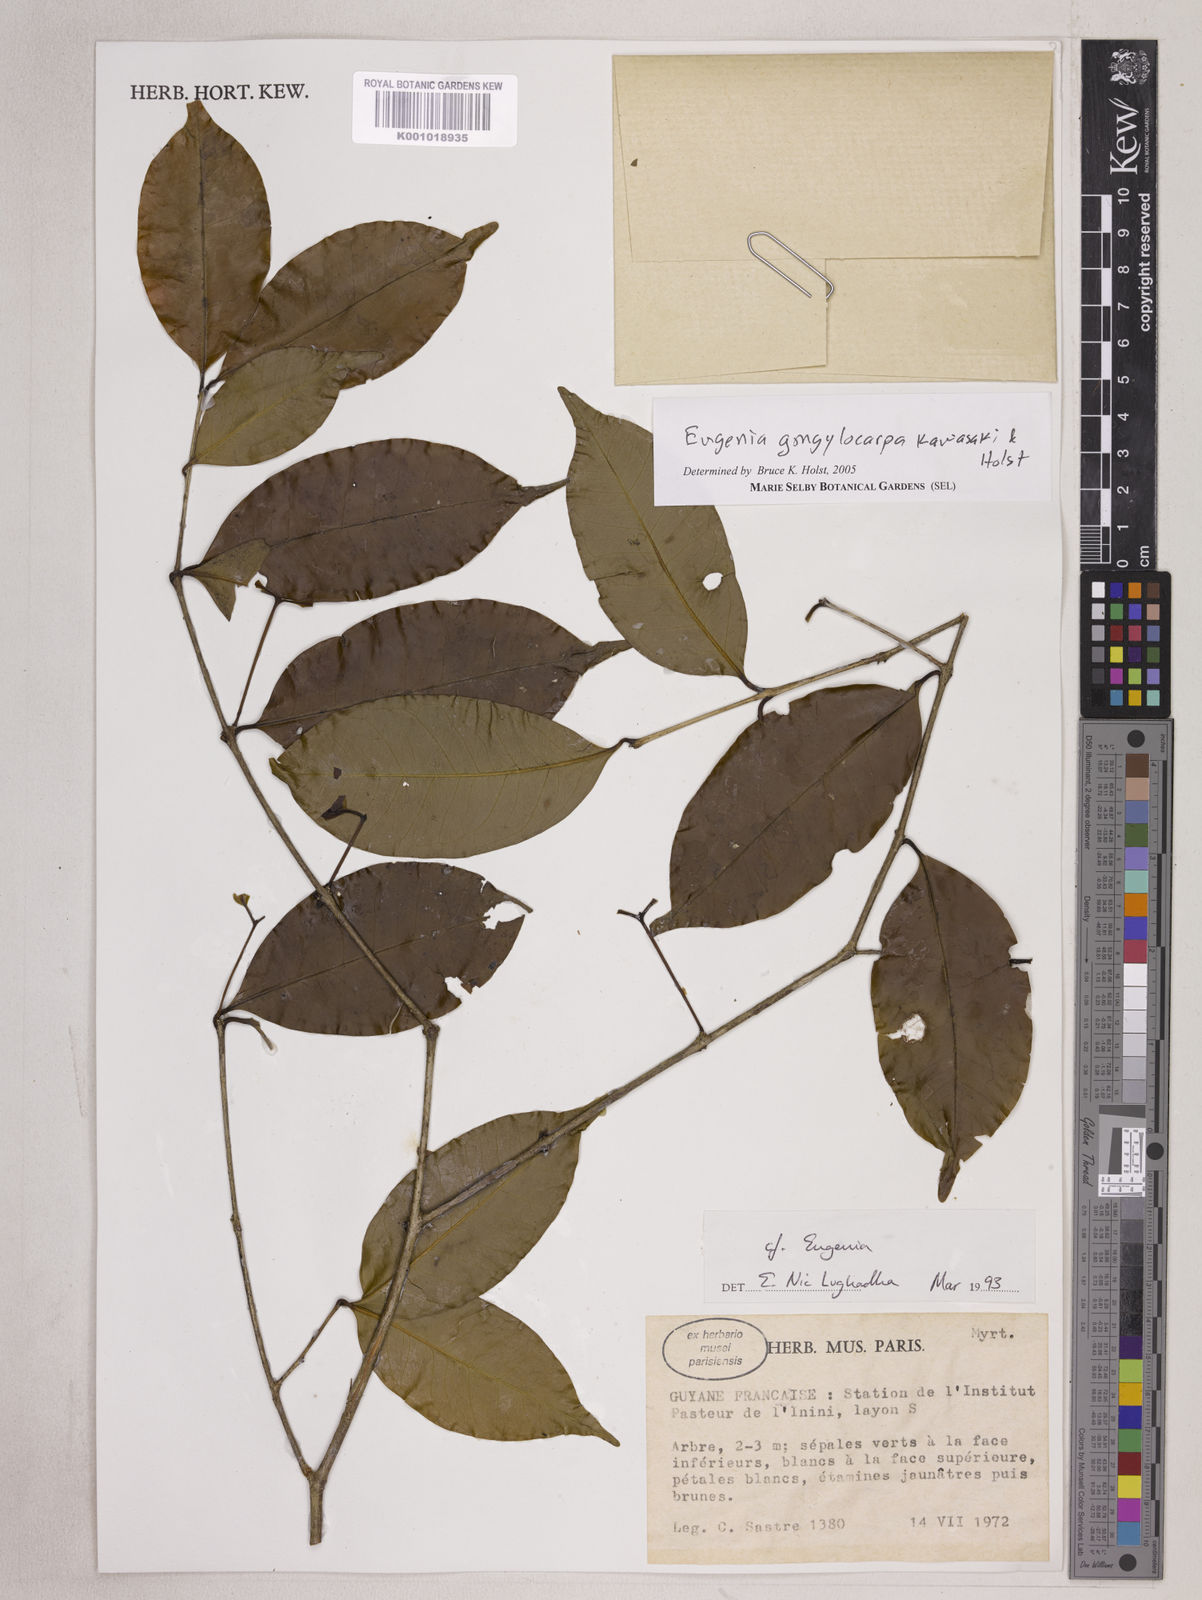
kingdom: Plantae
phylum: Tracheophyta
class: Magnoliopsida
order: Myrtales
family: Myrtaceae
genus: Eugenia
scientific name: Eugenia gongylocarpa
